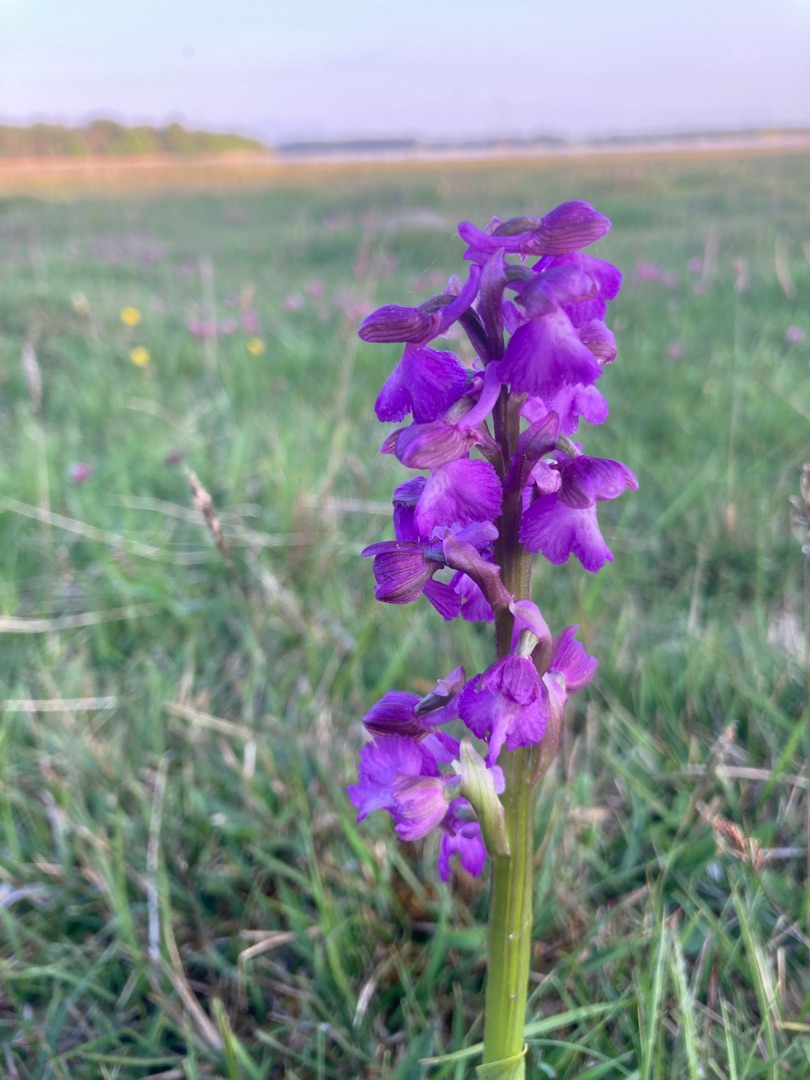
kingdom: Plantae
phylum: Tracheophyta
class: Liliopsida
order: Asparagales
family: Orchidaceae
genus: Anacamptis
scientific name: Anacamptis morio
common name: Salepgøgeurt
